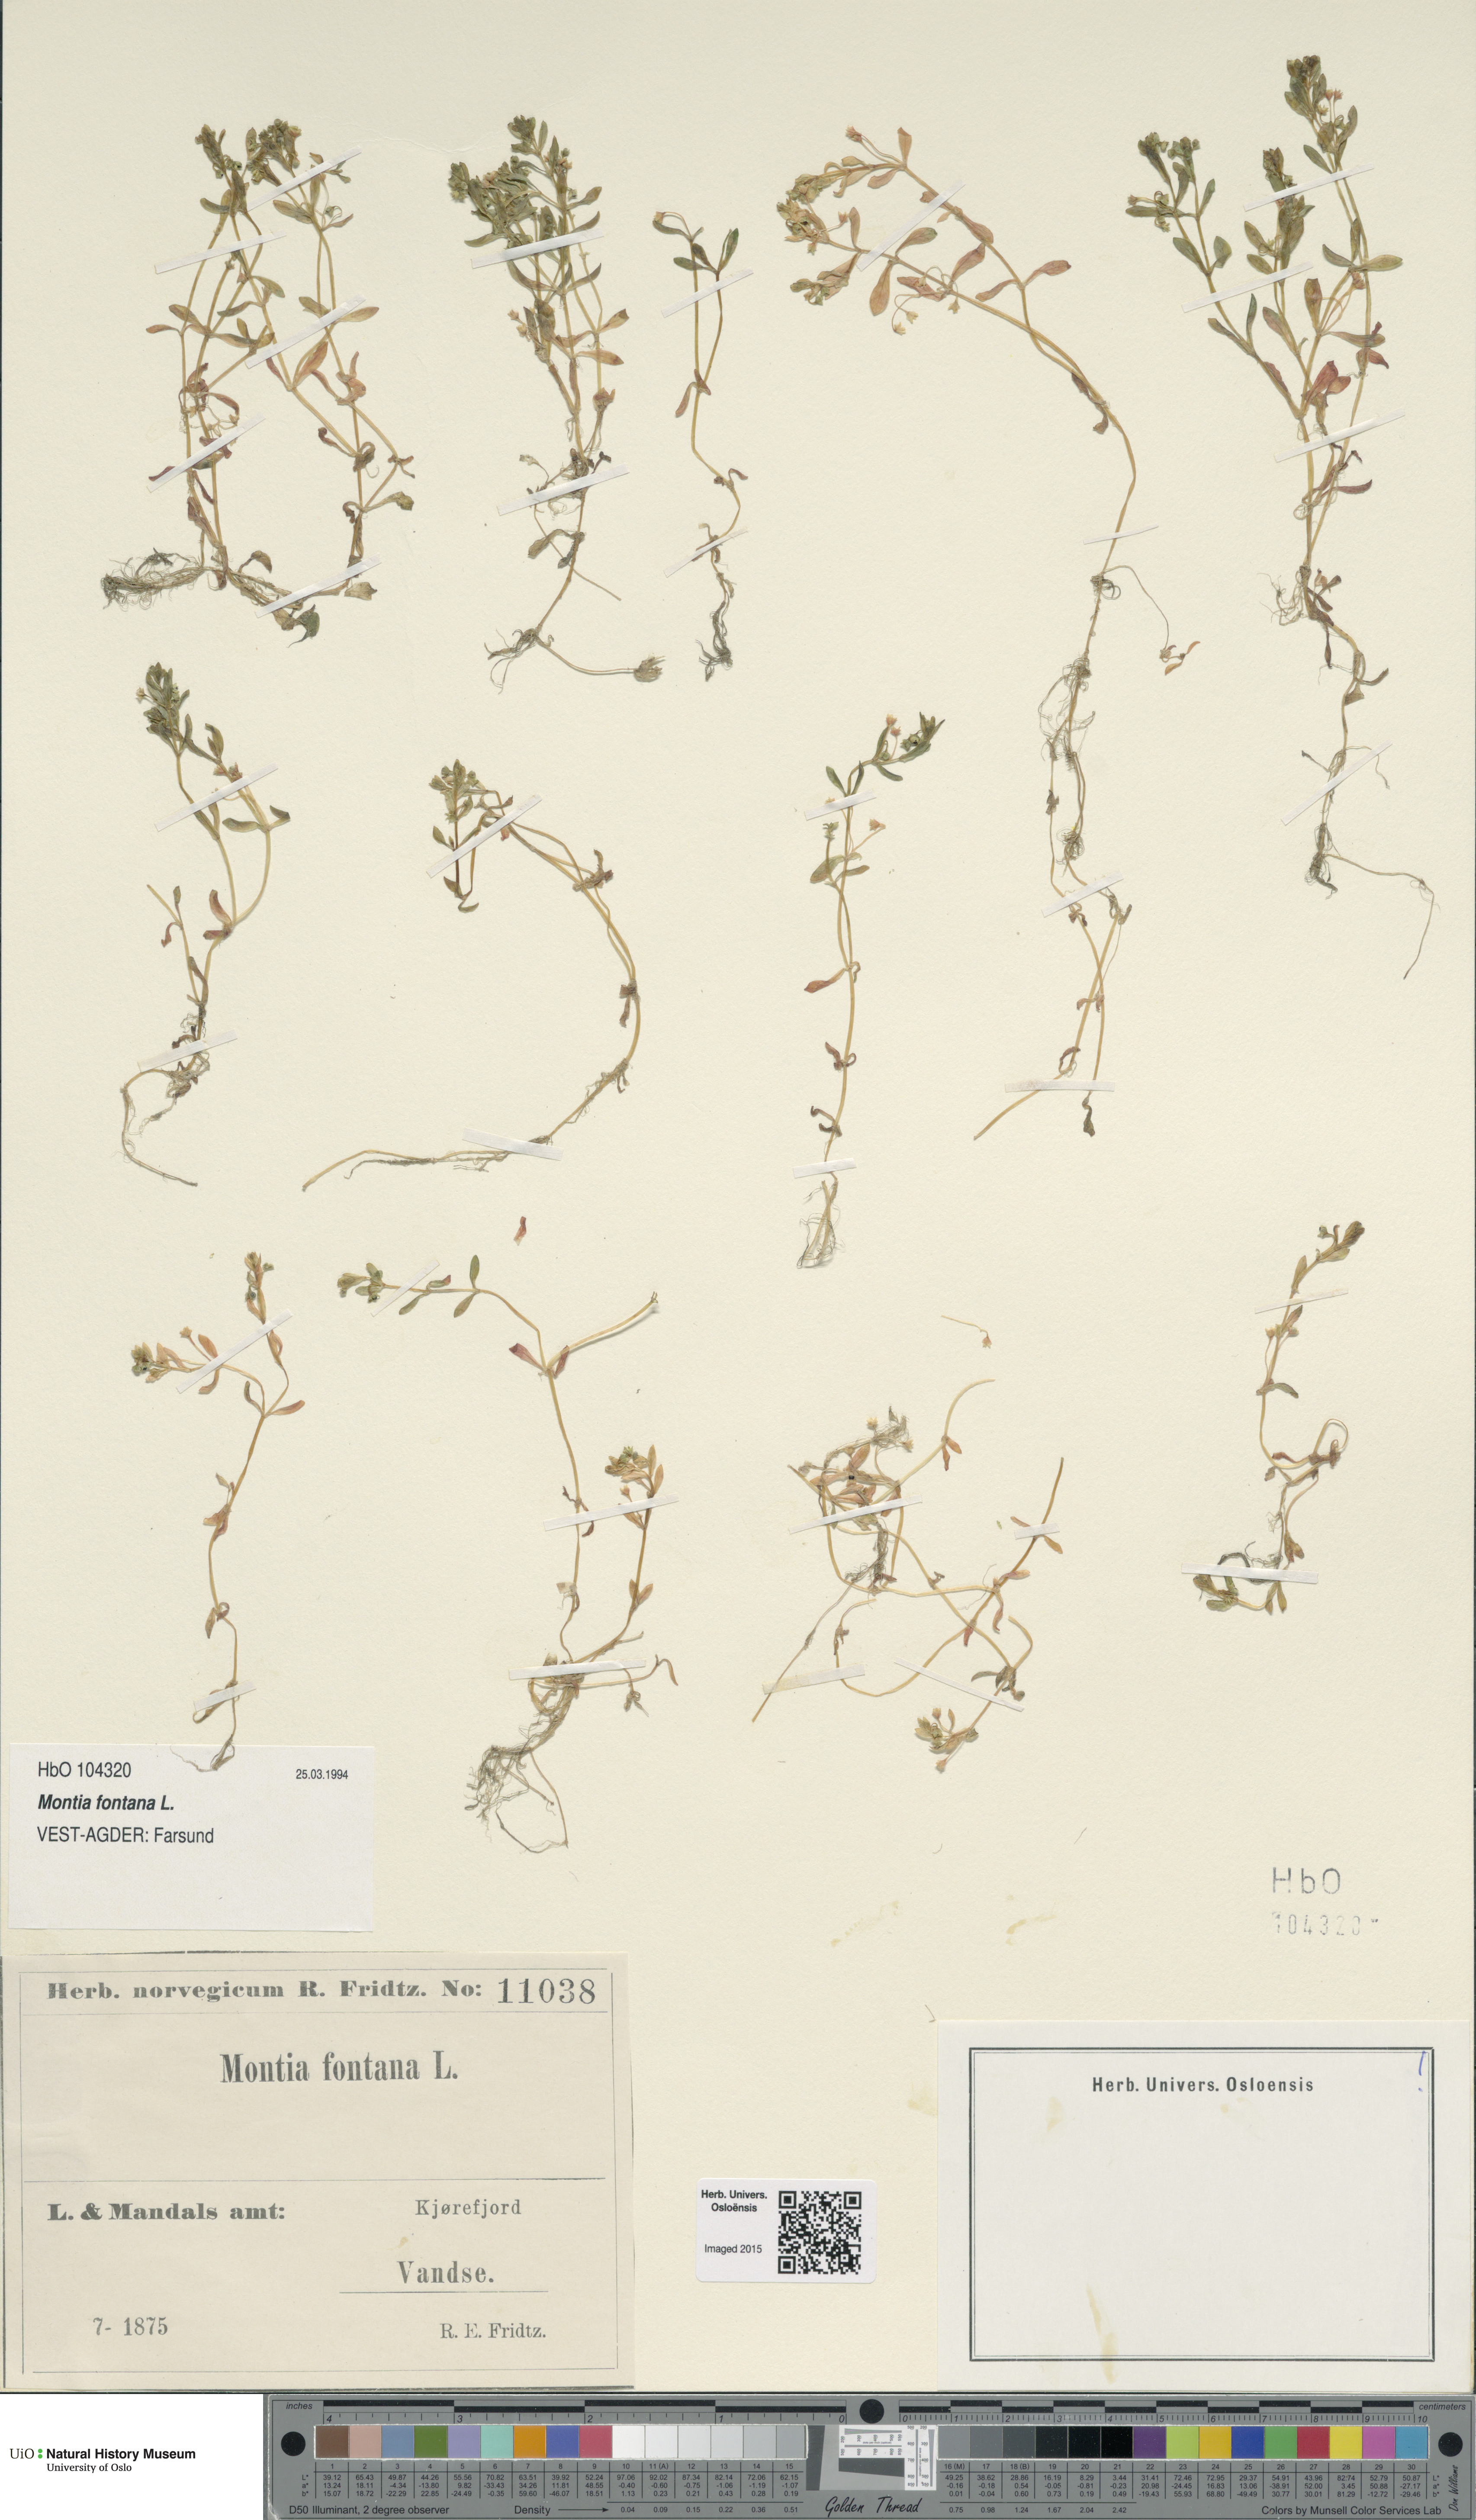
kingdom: Plantae
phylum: Tracheophyta
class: Magnoliopsida
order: Caryophyllales
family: Montiaceae
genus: Montia
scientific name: Montia fontana
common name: Blinks
